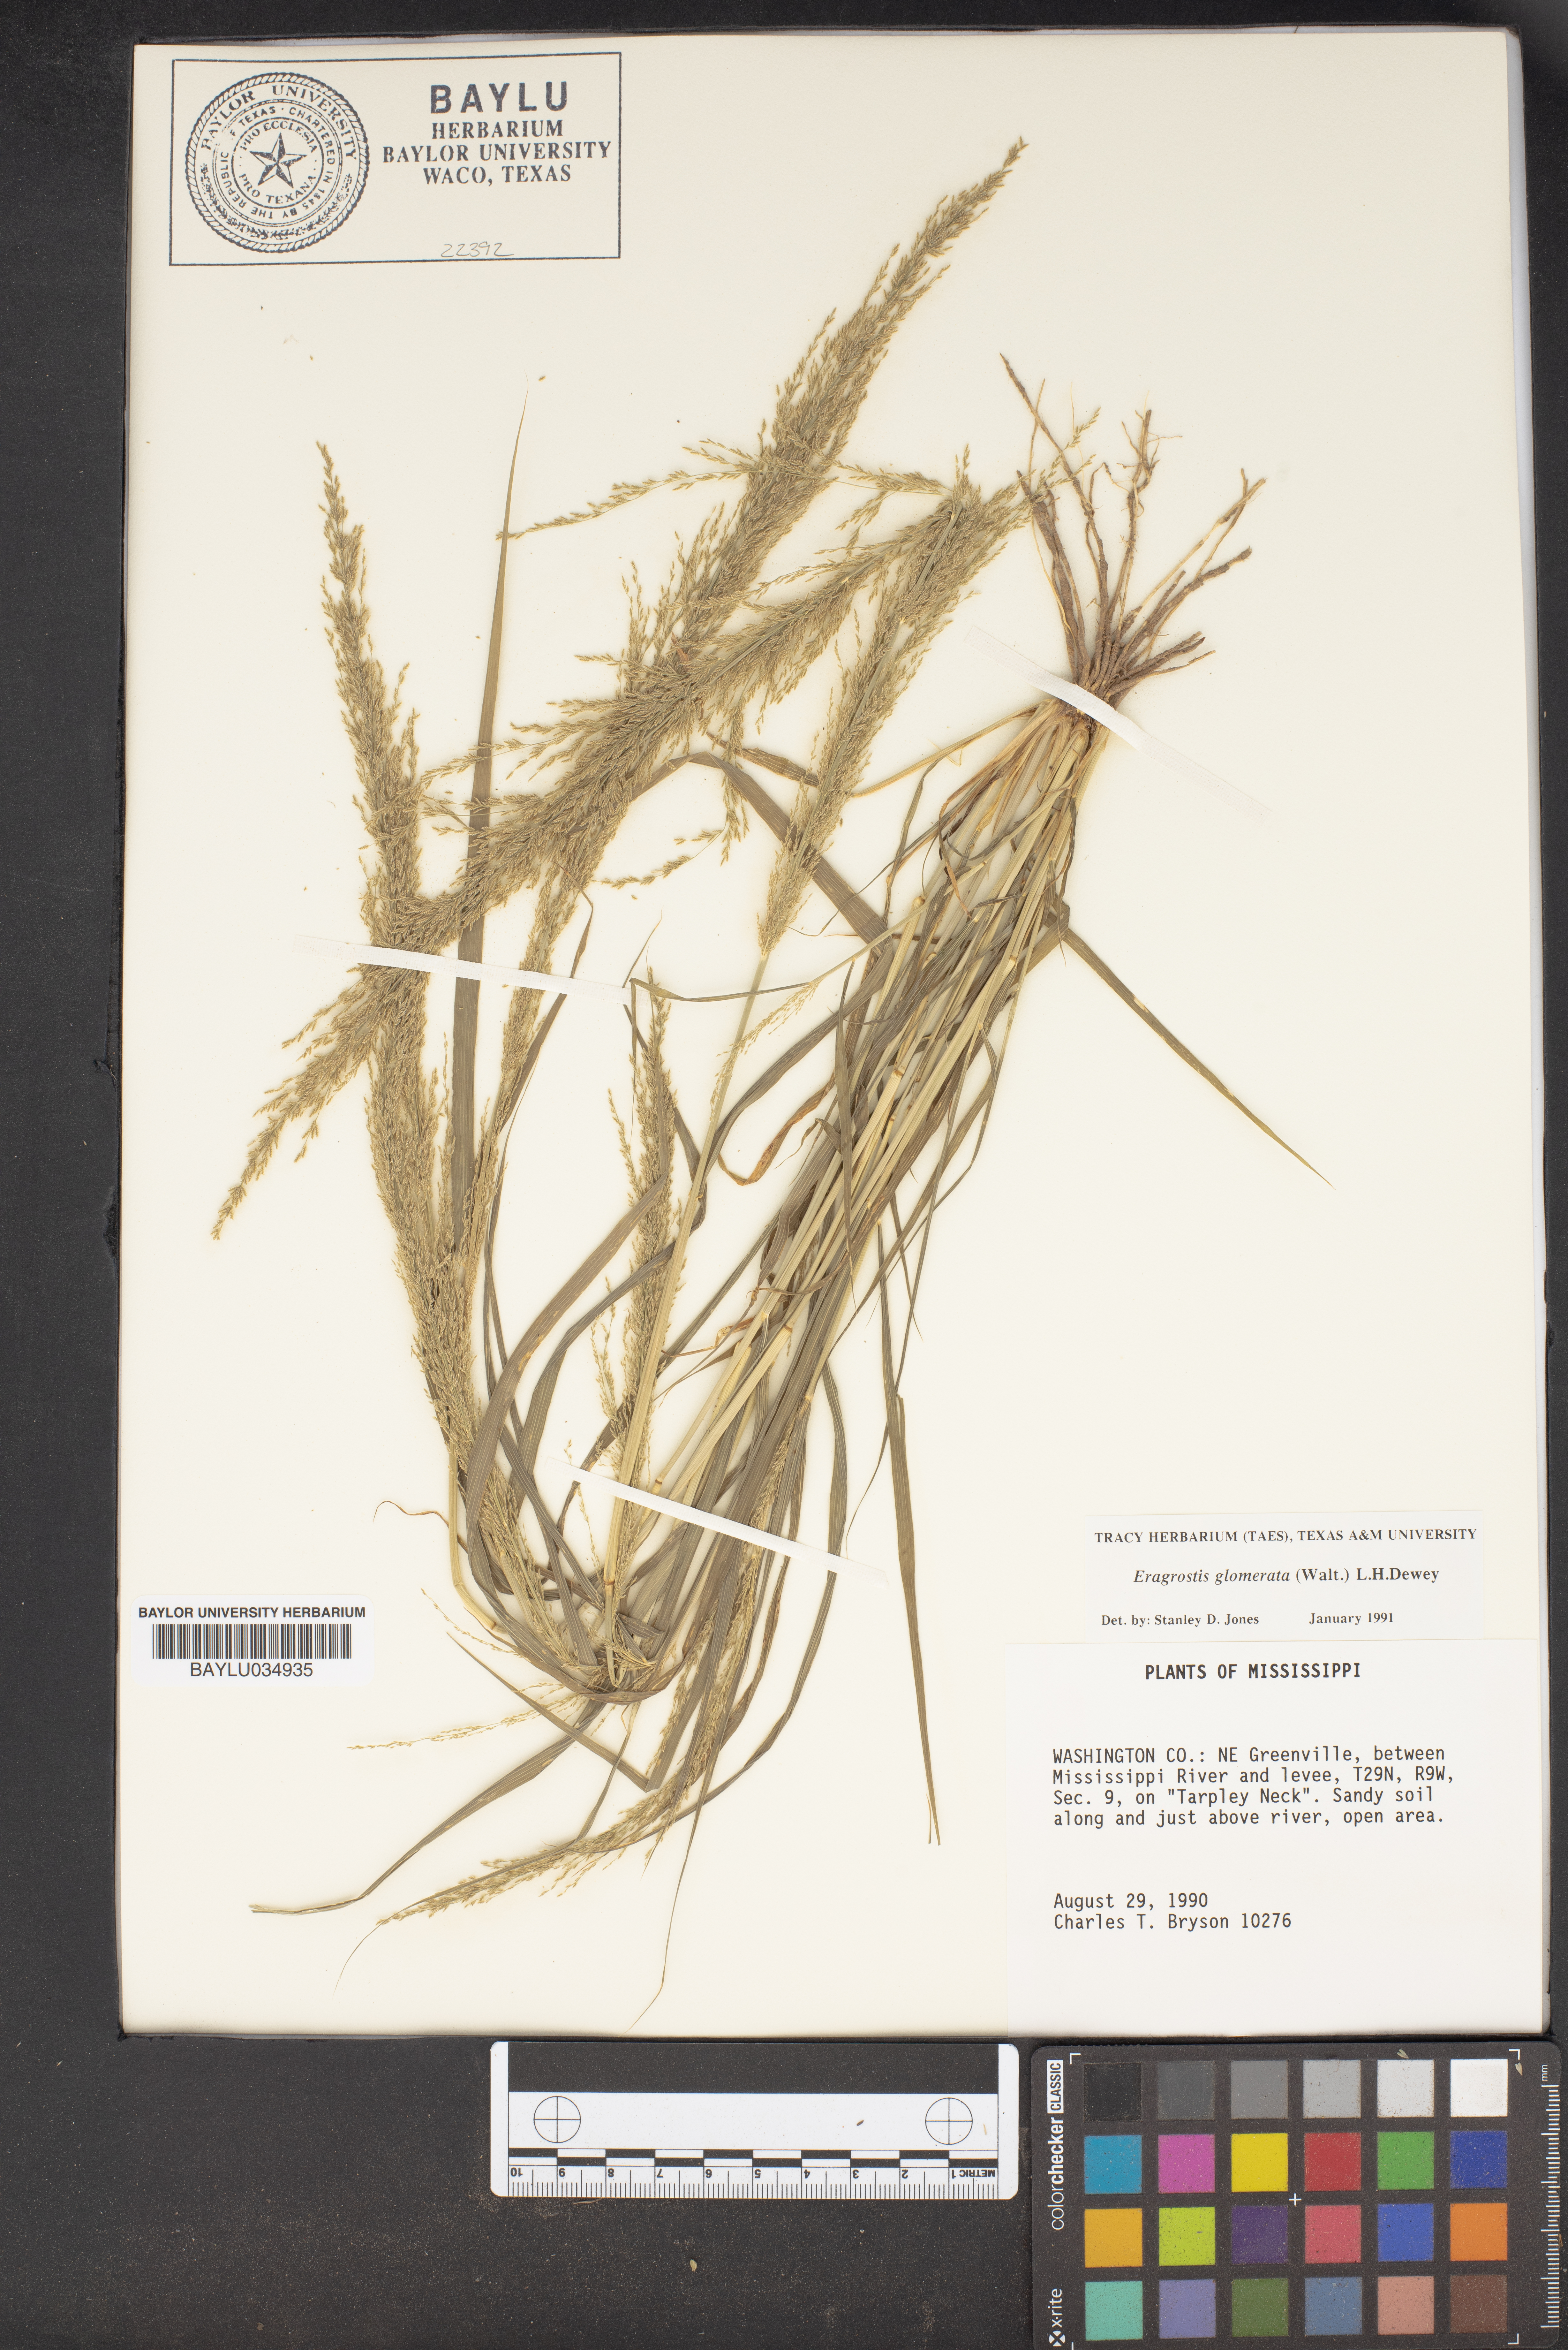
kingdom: Plantae
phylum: Tracheophyta
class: Liliopsida
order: Poales
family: Poaceae
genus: Eragrostis
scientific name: Eragrostis japonica
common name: Pond lovegrass
